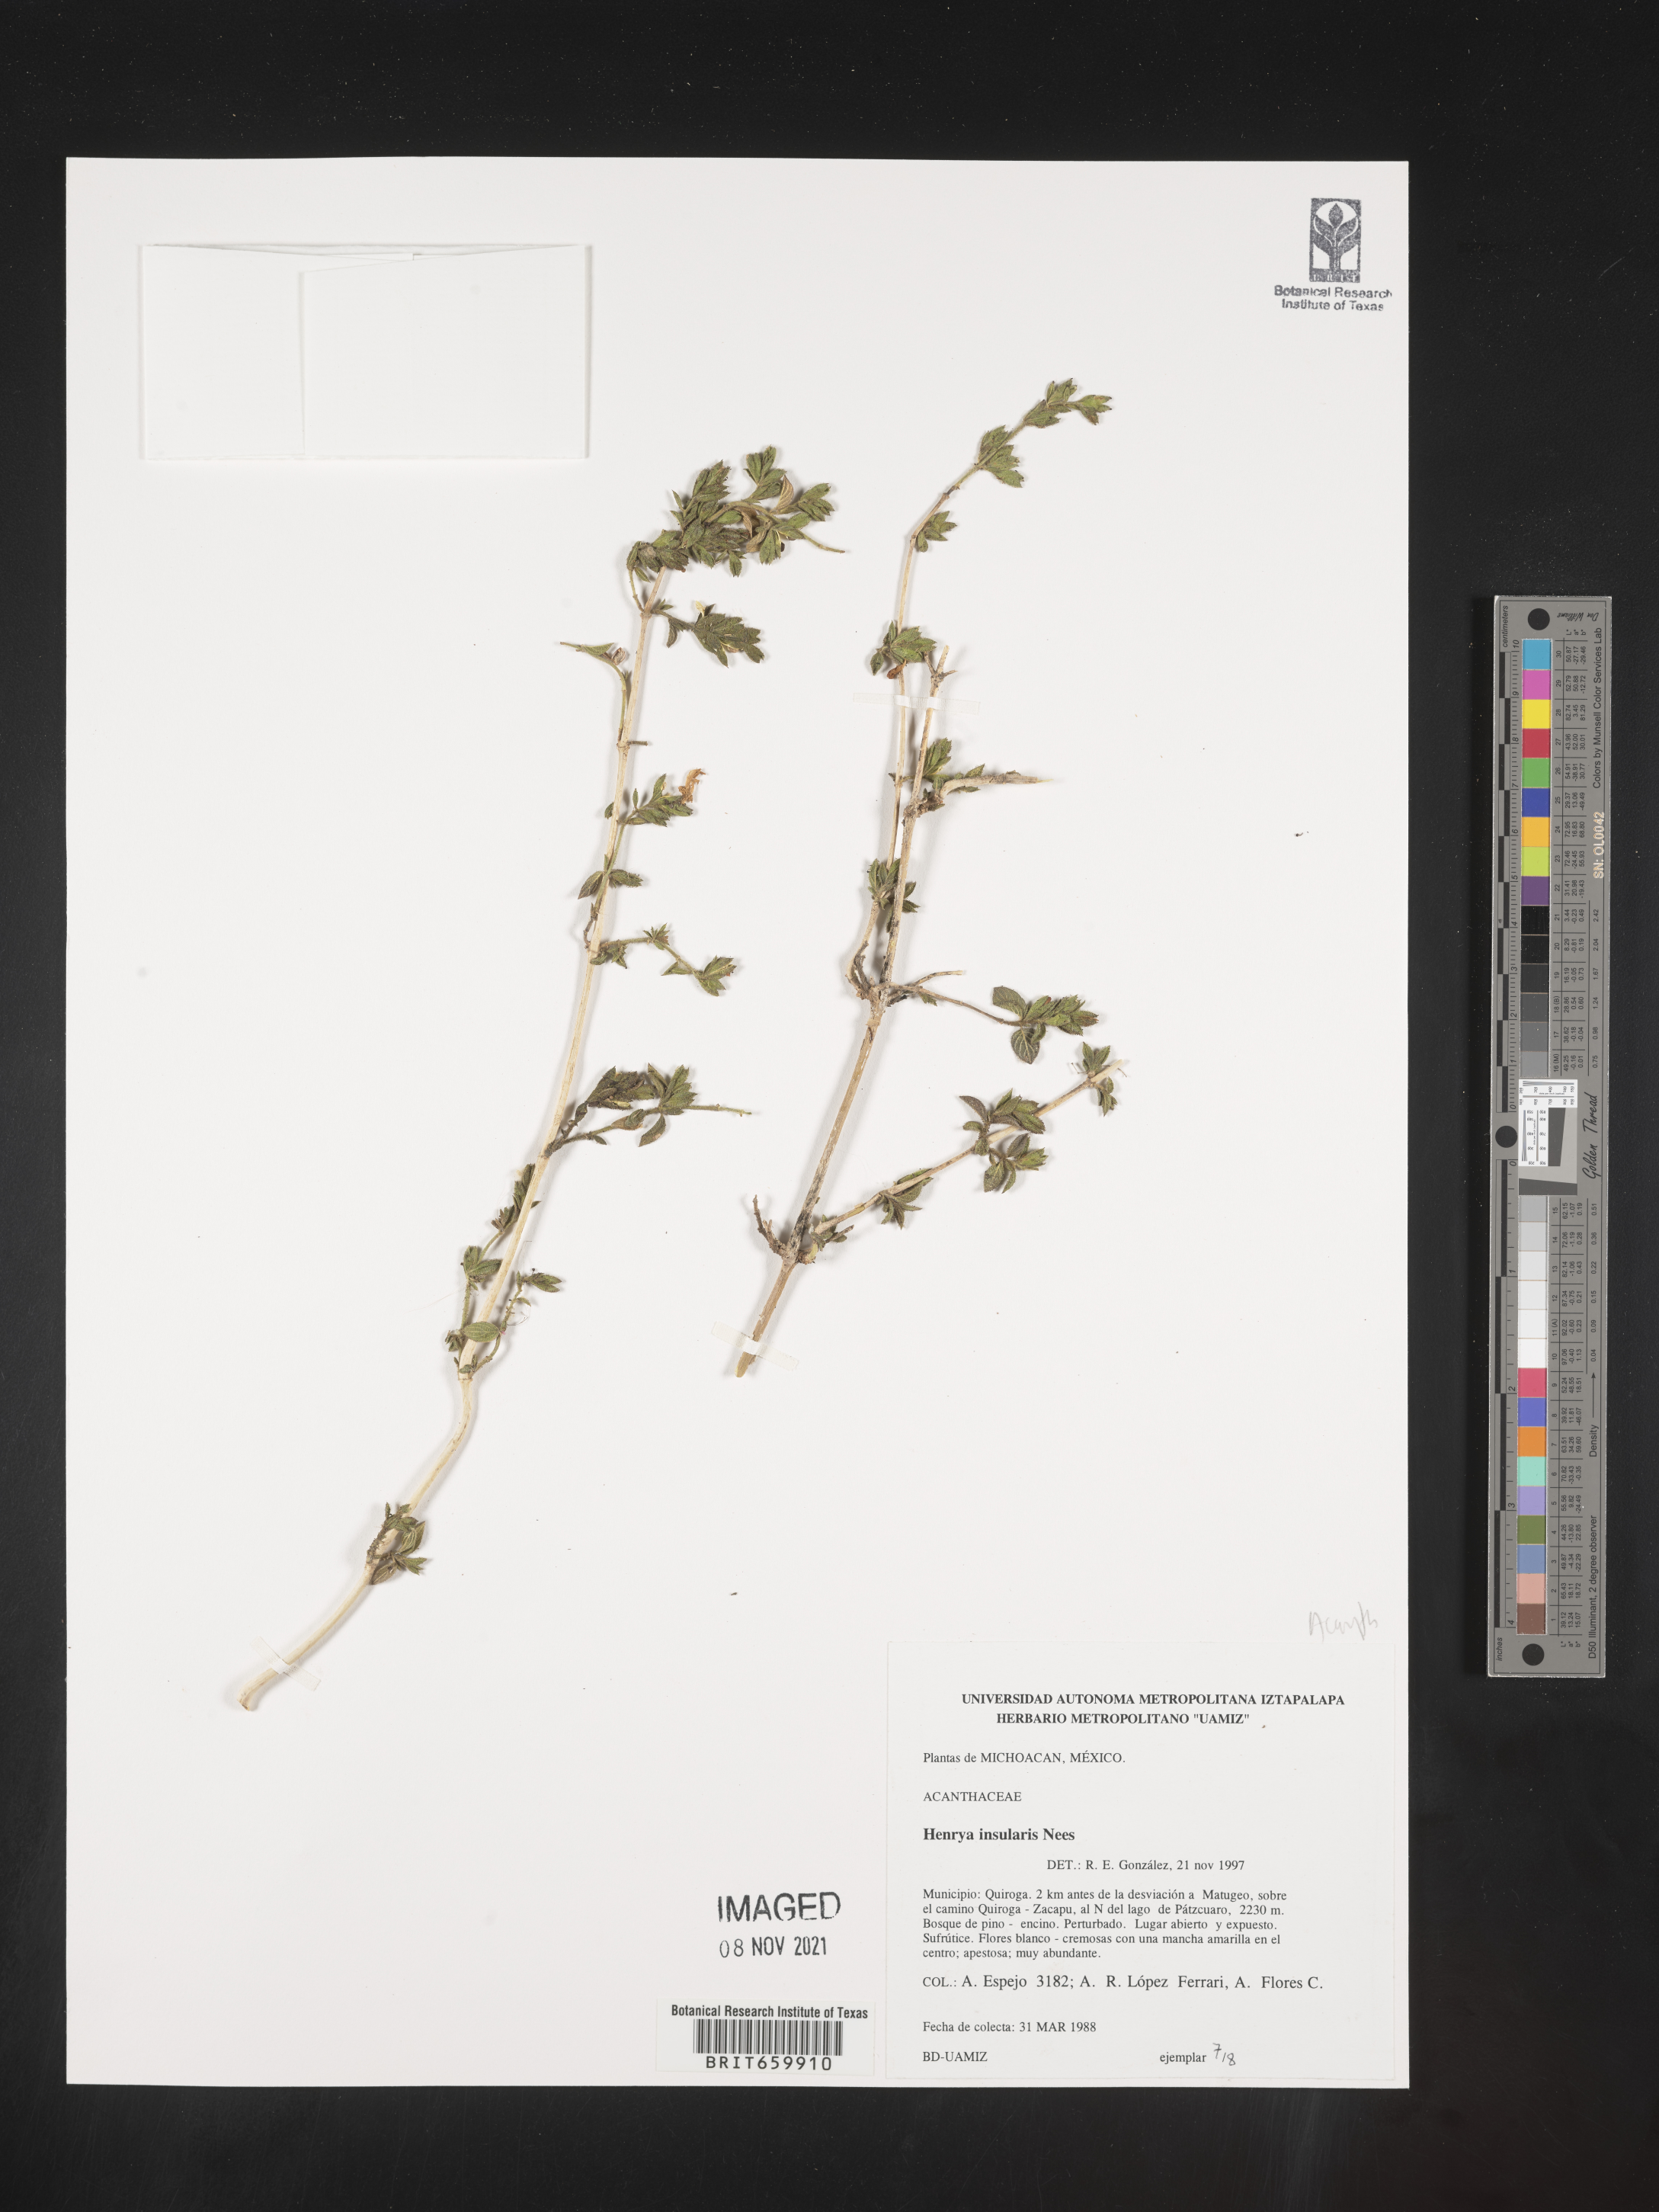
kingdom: Plantae
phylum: Tracheophyta
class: Magnoliopsida
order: Lamiales
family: Acanthaceae
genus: Henrya
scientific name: Henrya
